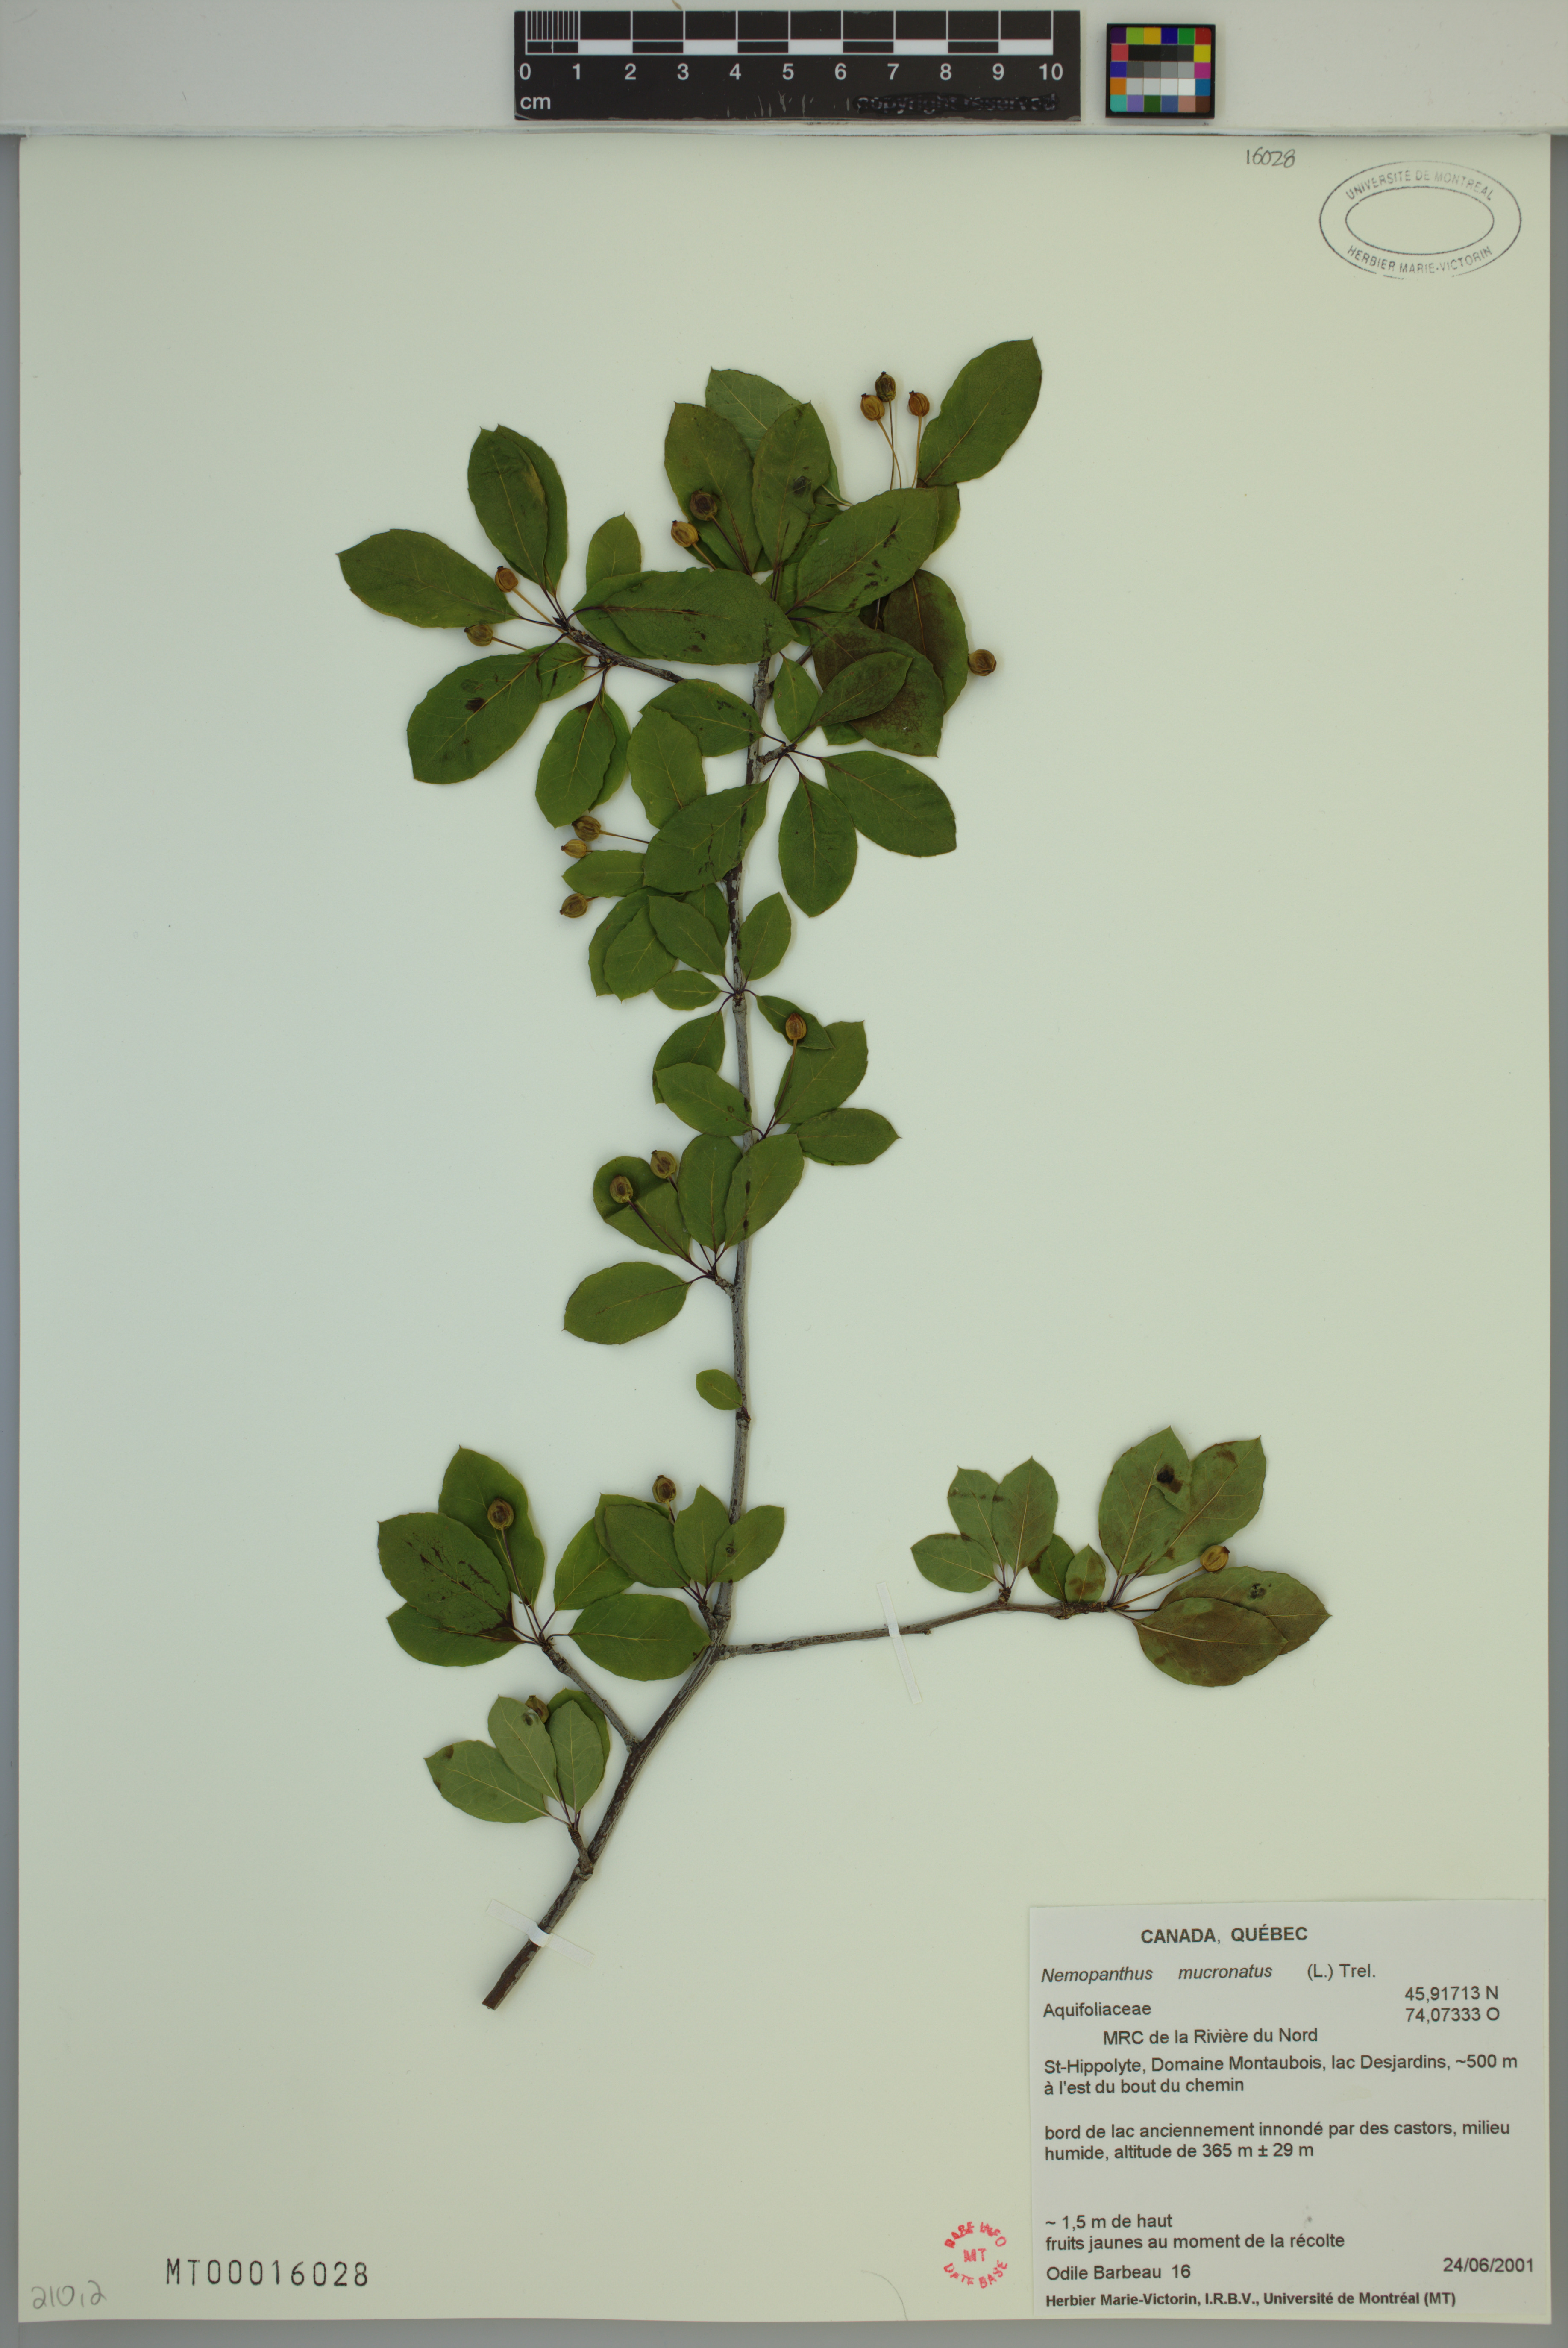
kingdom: Plantae
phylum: Tracheophyta
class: Magnoliopsida
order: Aquifoliales
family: Aquifoliaceae
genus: Ilex
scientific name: Ilex mucronata
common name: Catberry
